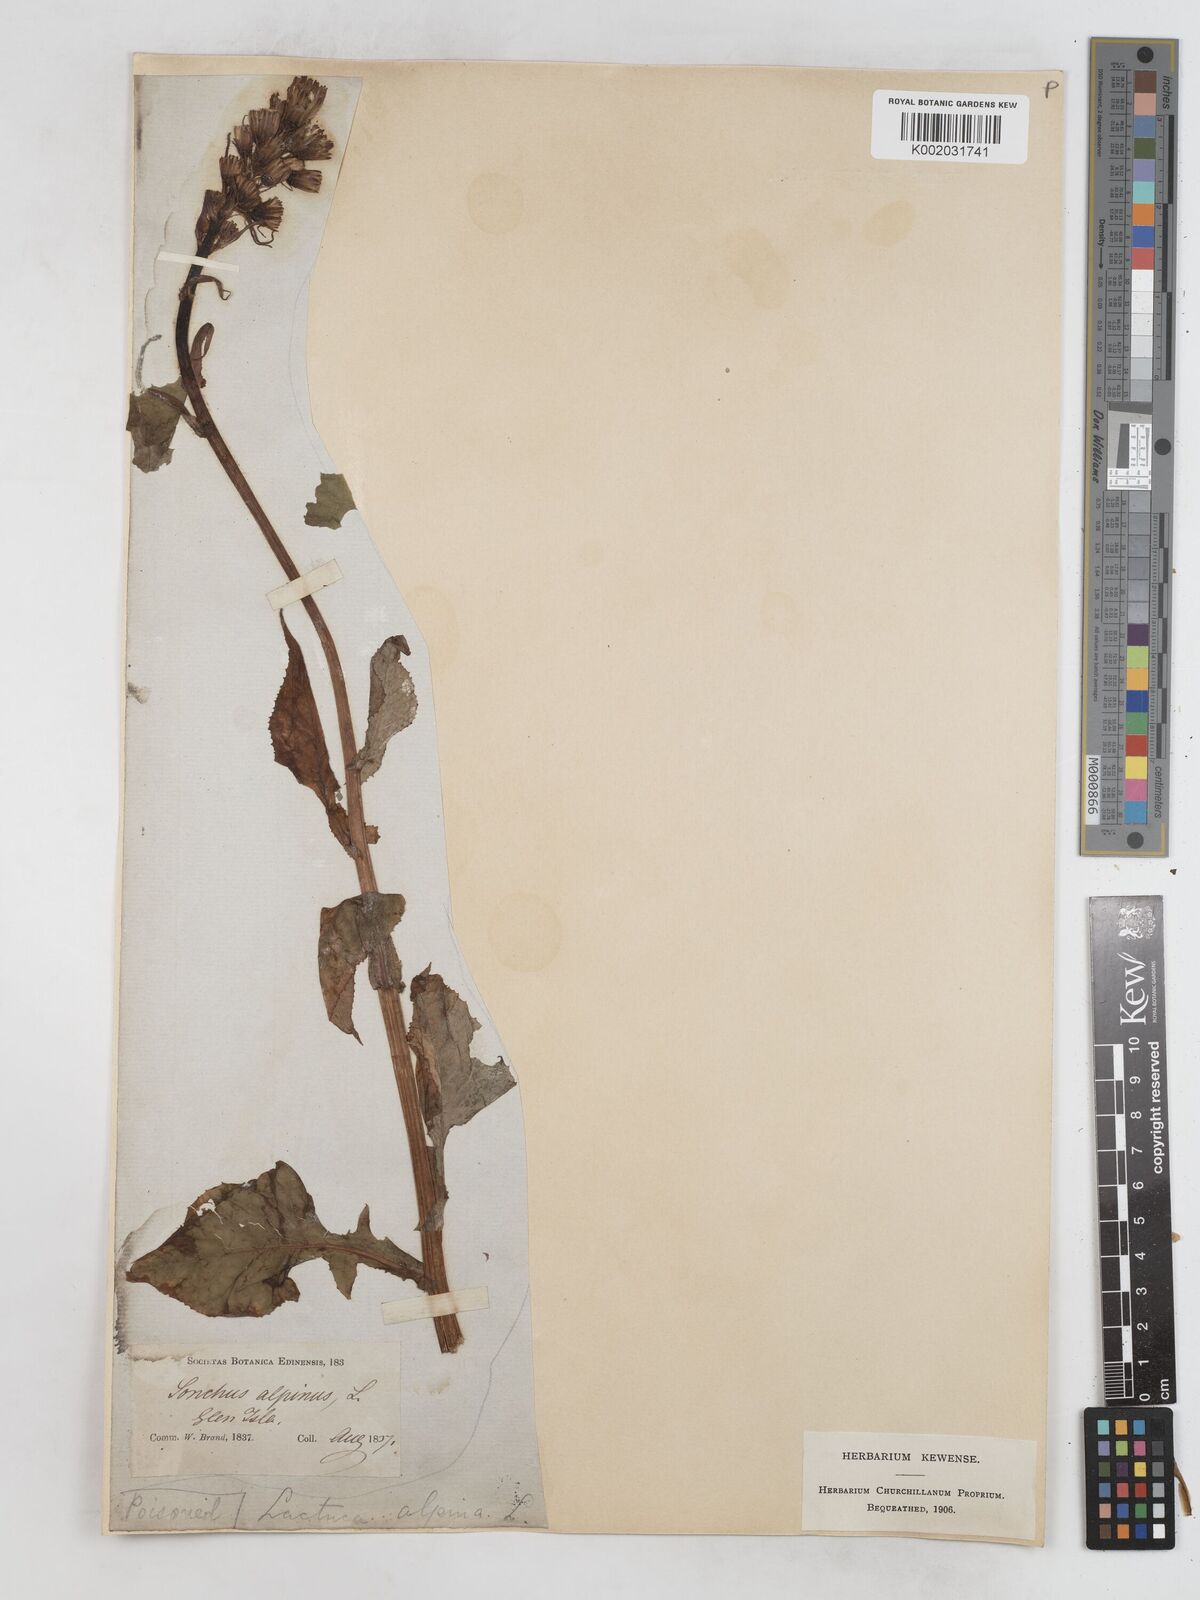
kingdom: Plantae
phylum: Tracheophyta
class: Magnoliopsida
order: Asterales
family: Asteraceae
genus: Cicerbita
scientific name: Cicerbita alpina
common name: Alpine blue-sow-thistle
